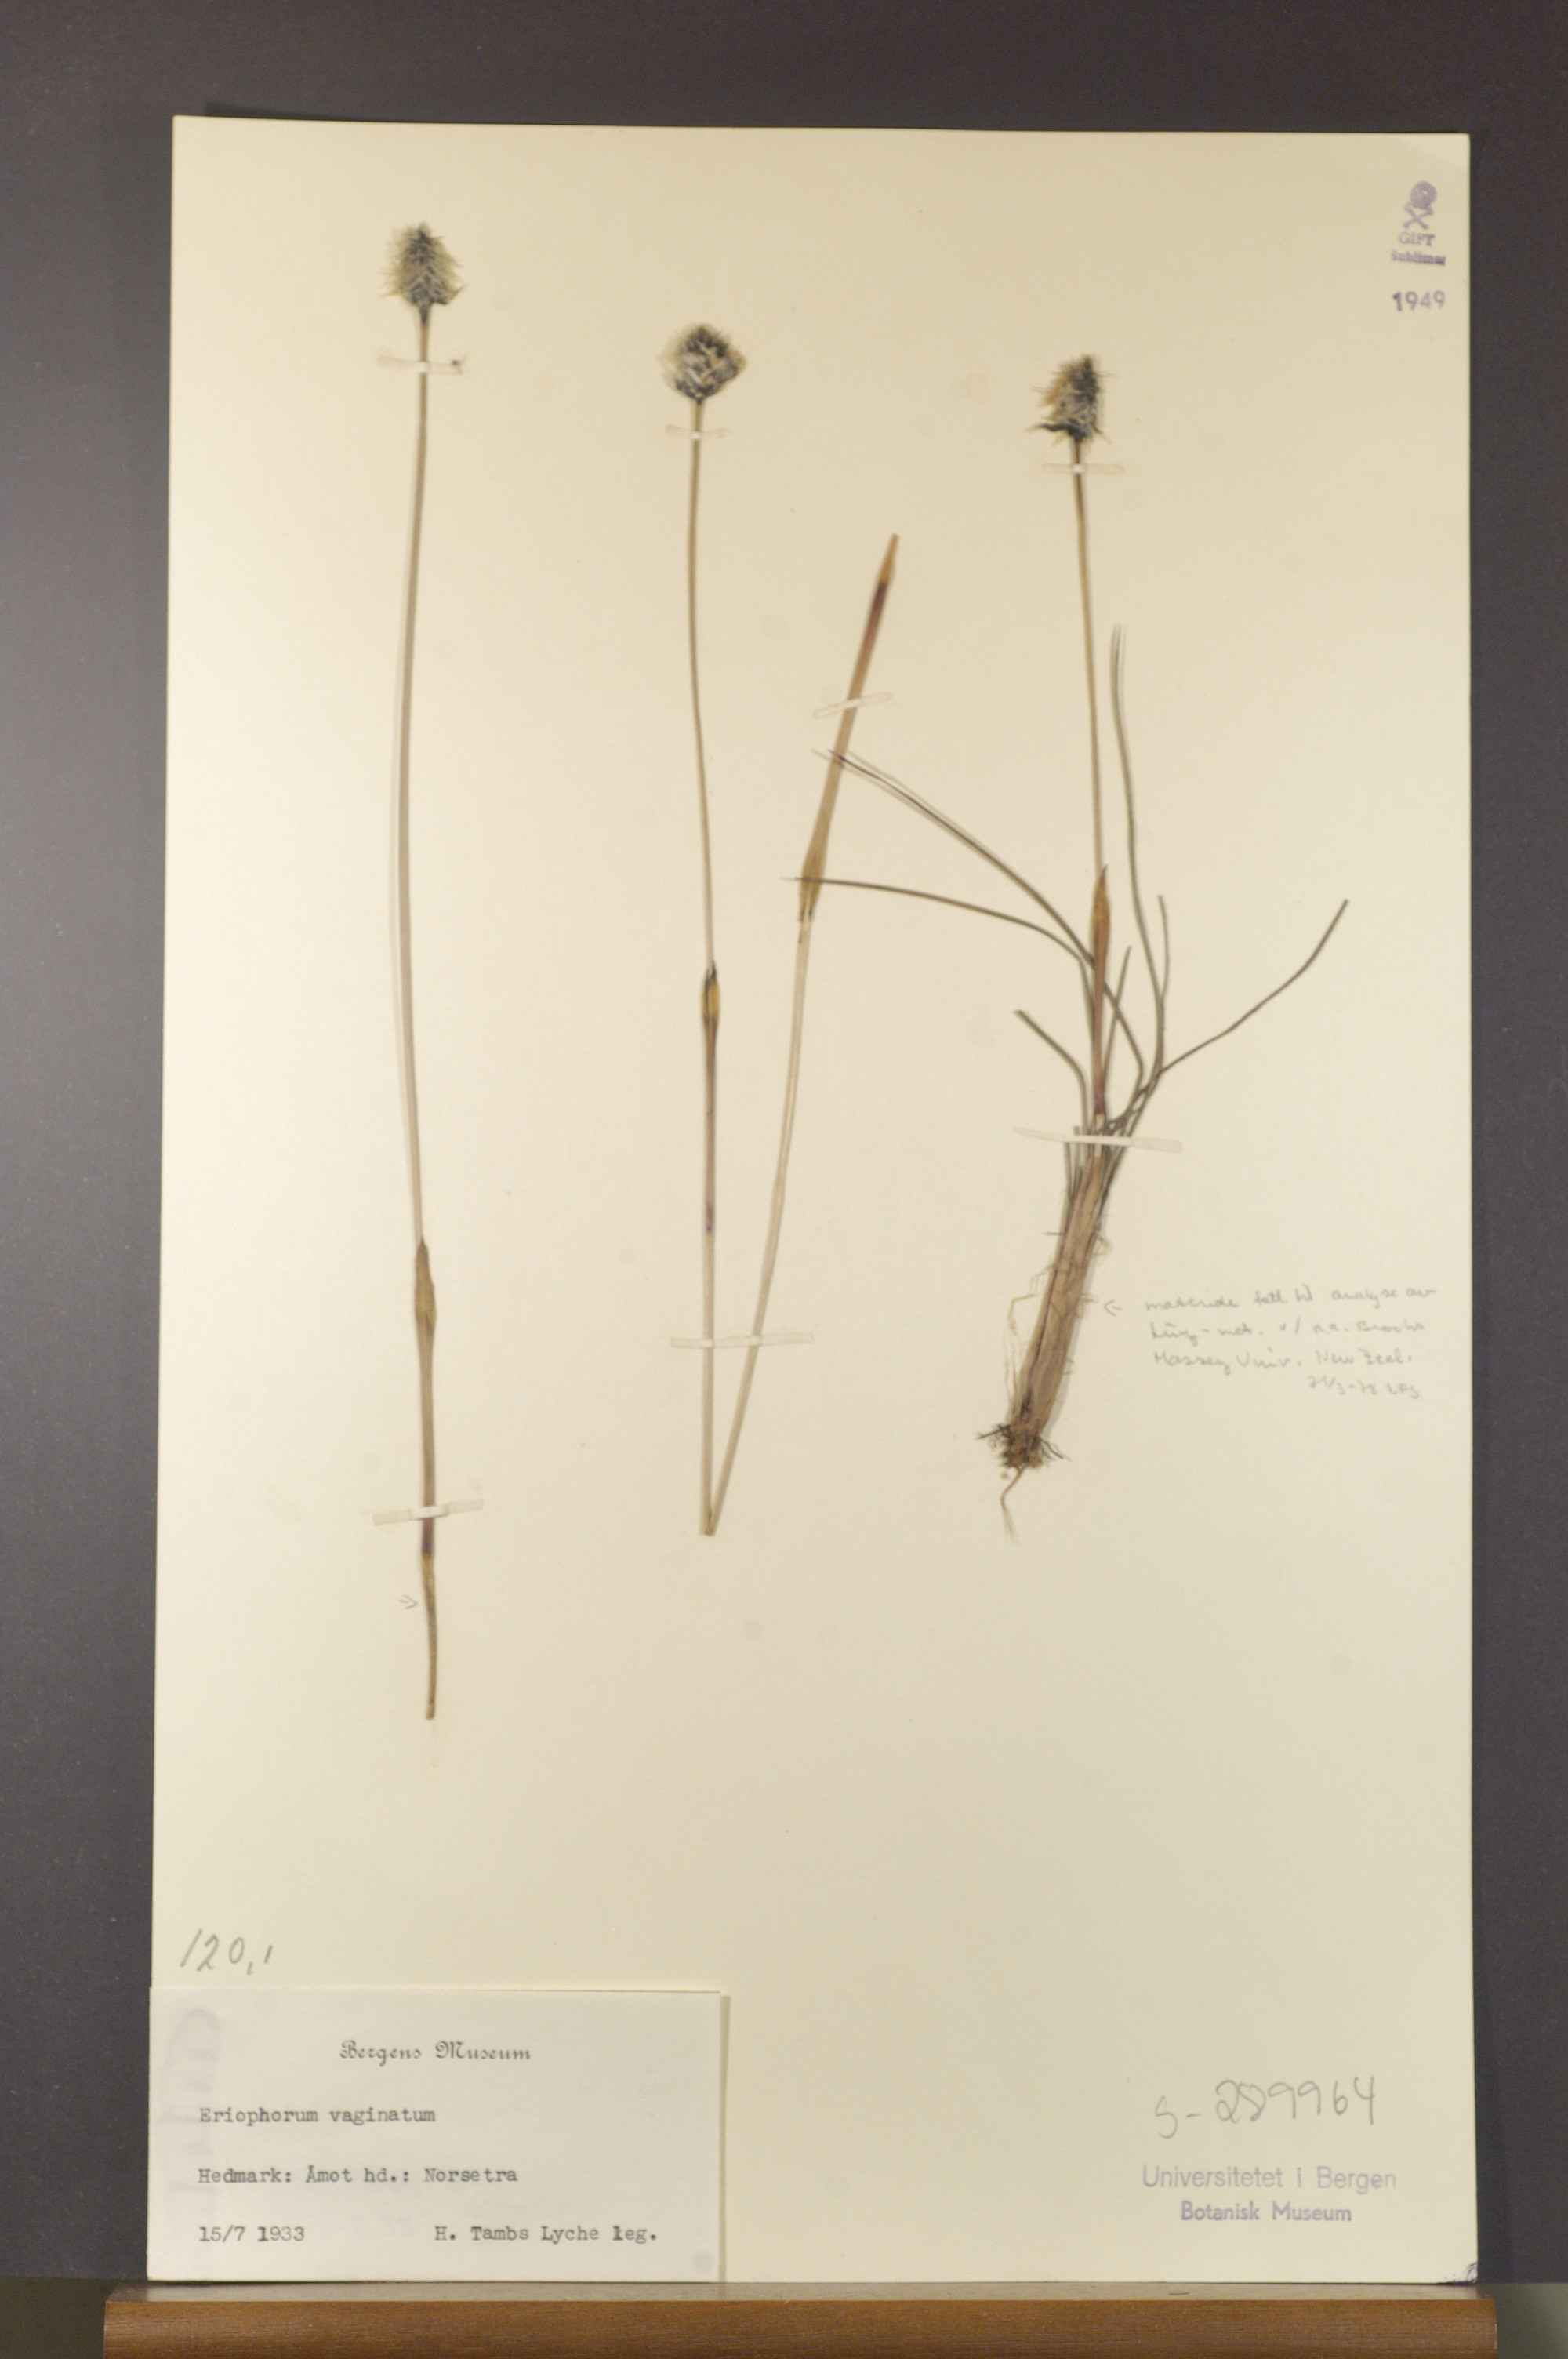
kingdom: Plantae
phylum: Tracheophyta
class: Liliopsida
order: Poales
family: Cyperaceae
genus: Eriophorum
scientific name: Eriophorum vaginatum
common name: Hare's-tail cottongrass
